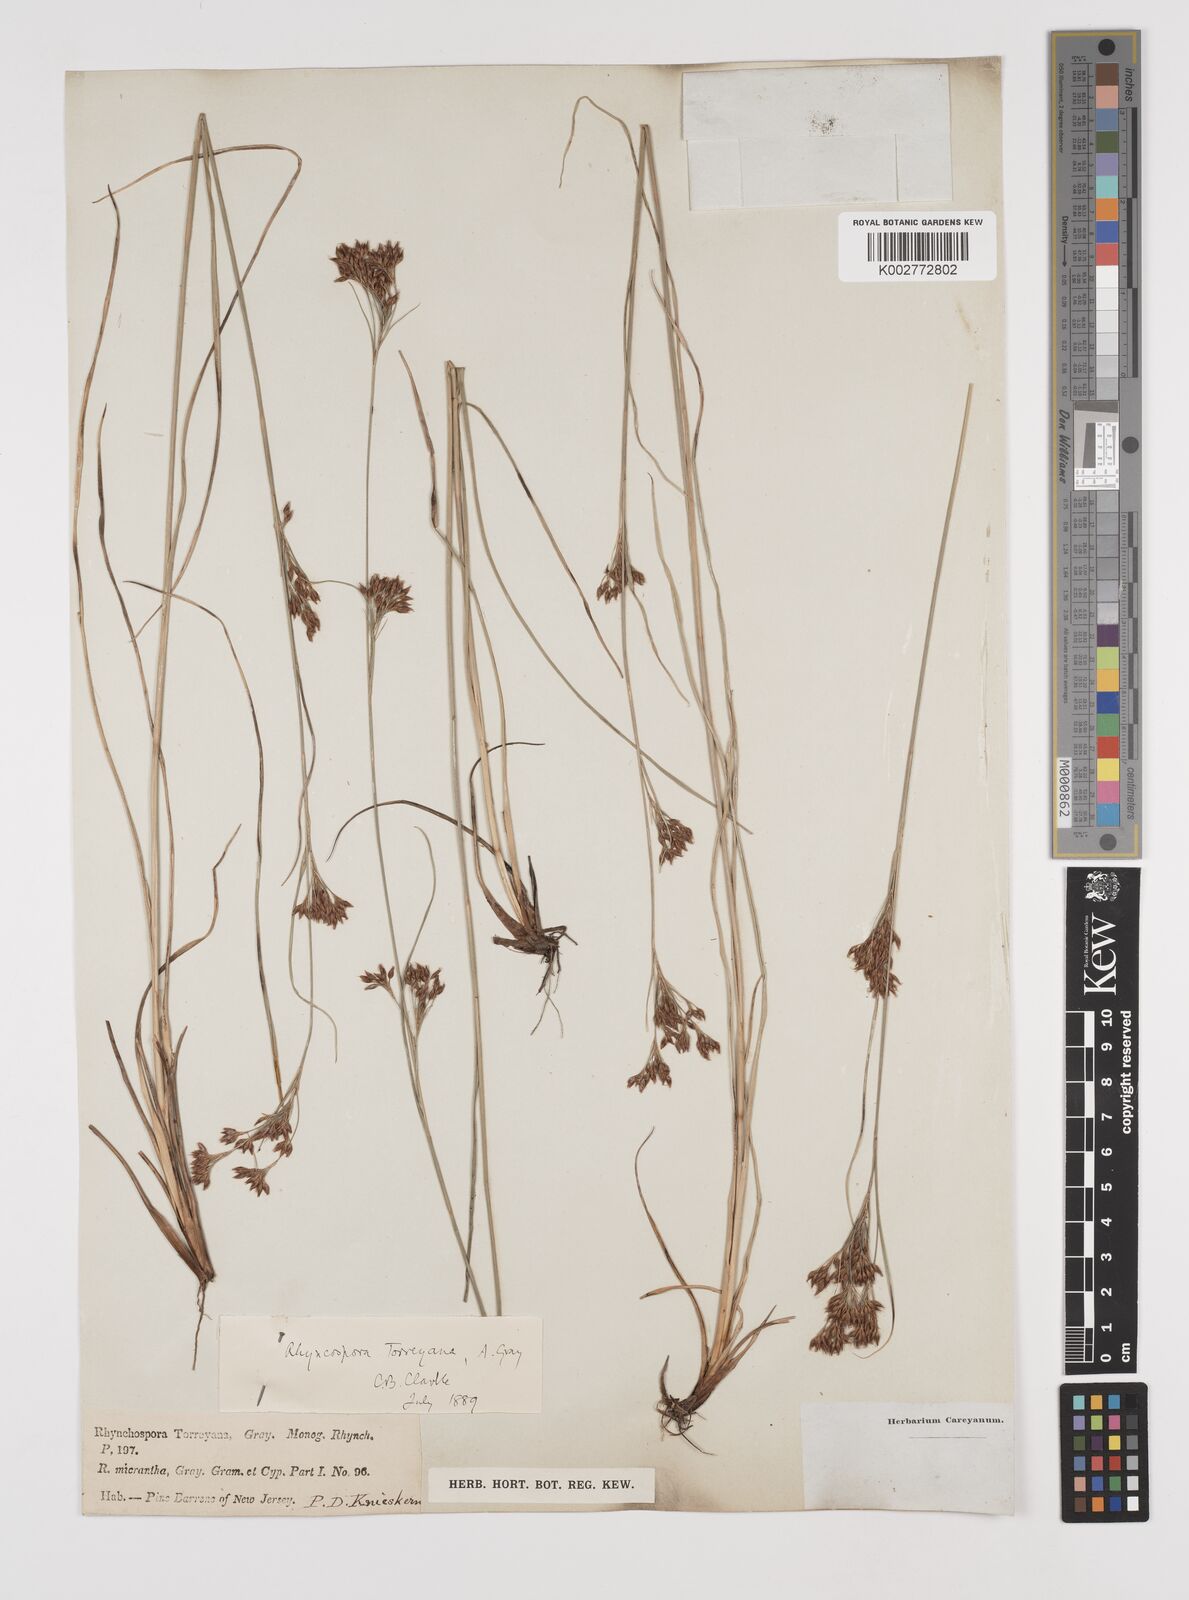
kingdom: Plantae
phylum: Tracheophyta
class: Liliopsida
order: Poales
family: Cyperaceae
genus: Rhynchospora
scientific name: Rhynchospora torreyana
